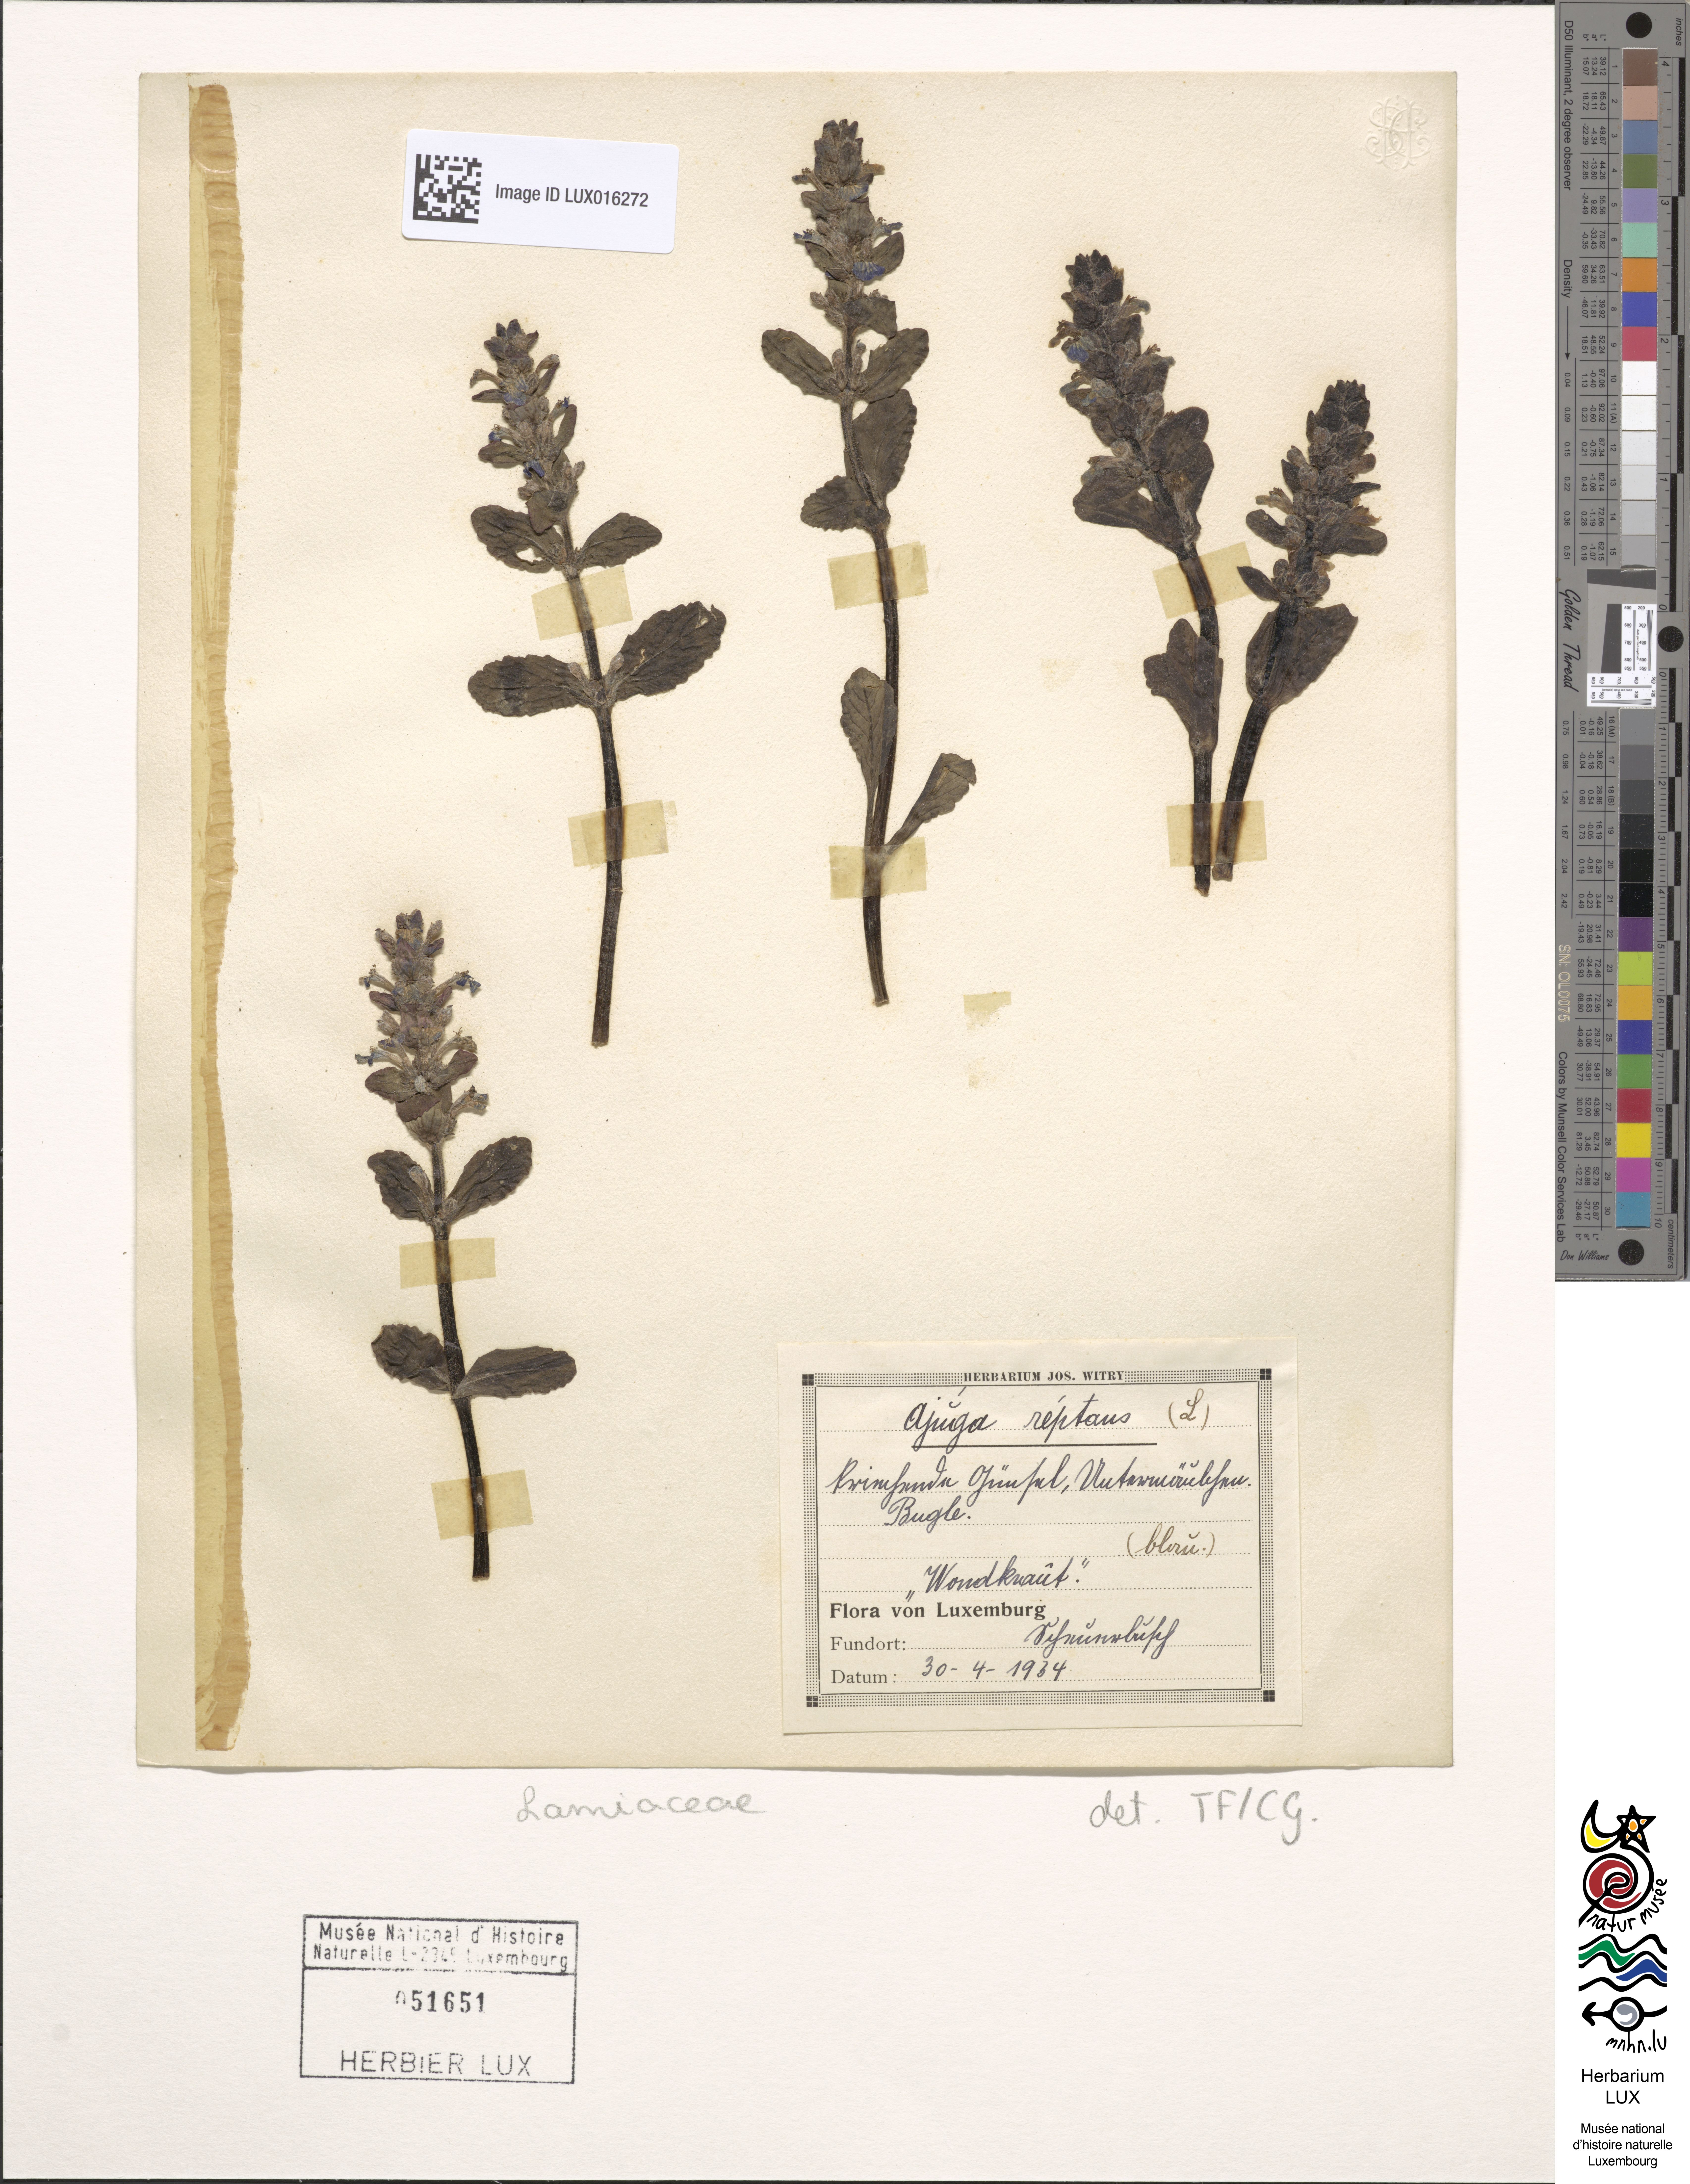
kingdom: Plantae
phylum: Tracheophyta
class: Magnoliopsida
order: Lamiales
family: Lamiaceae
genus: Ajuga
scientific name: Ajuga reptans
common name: Bugle
